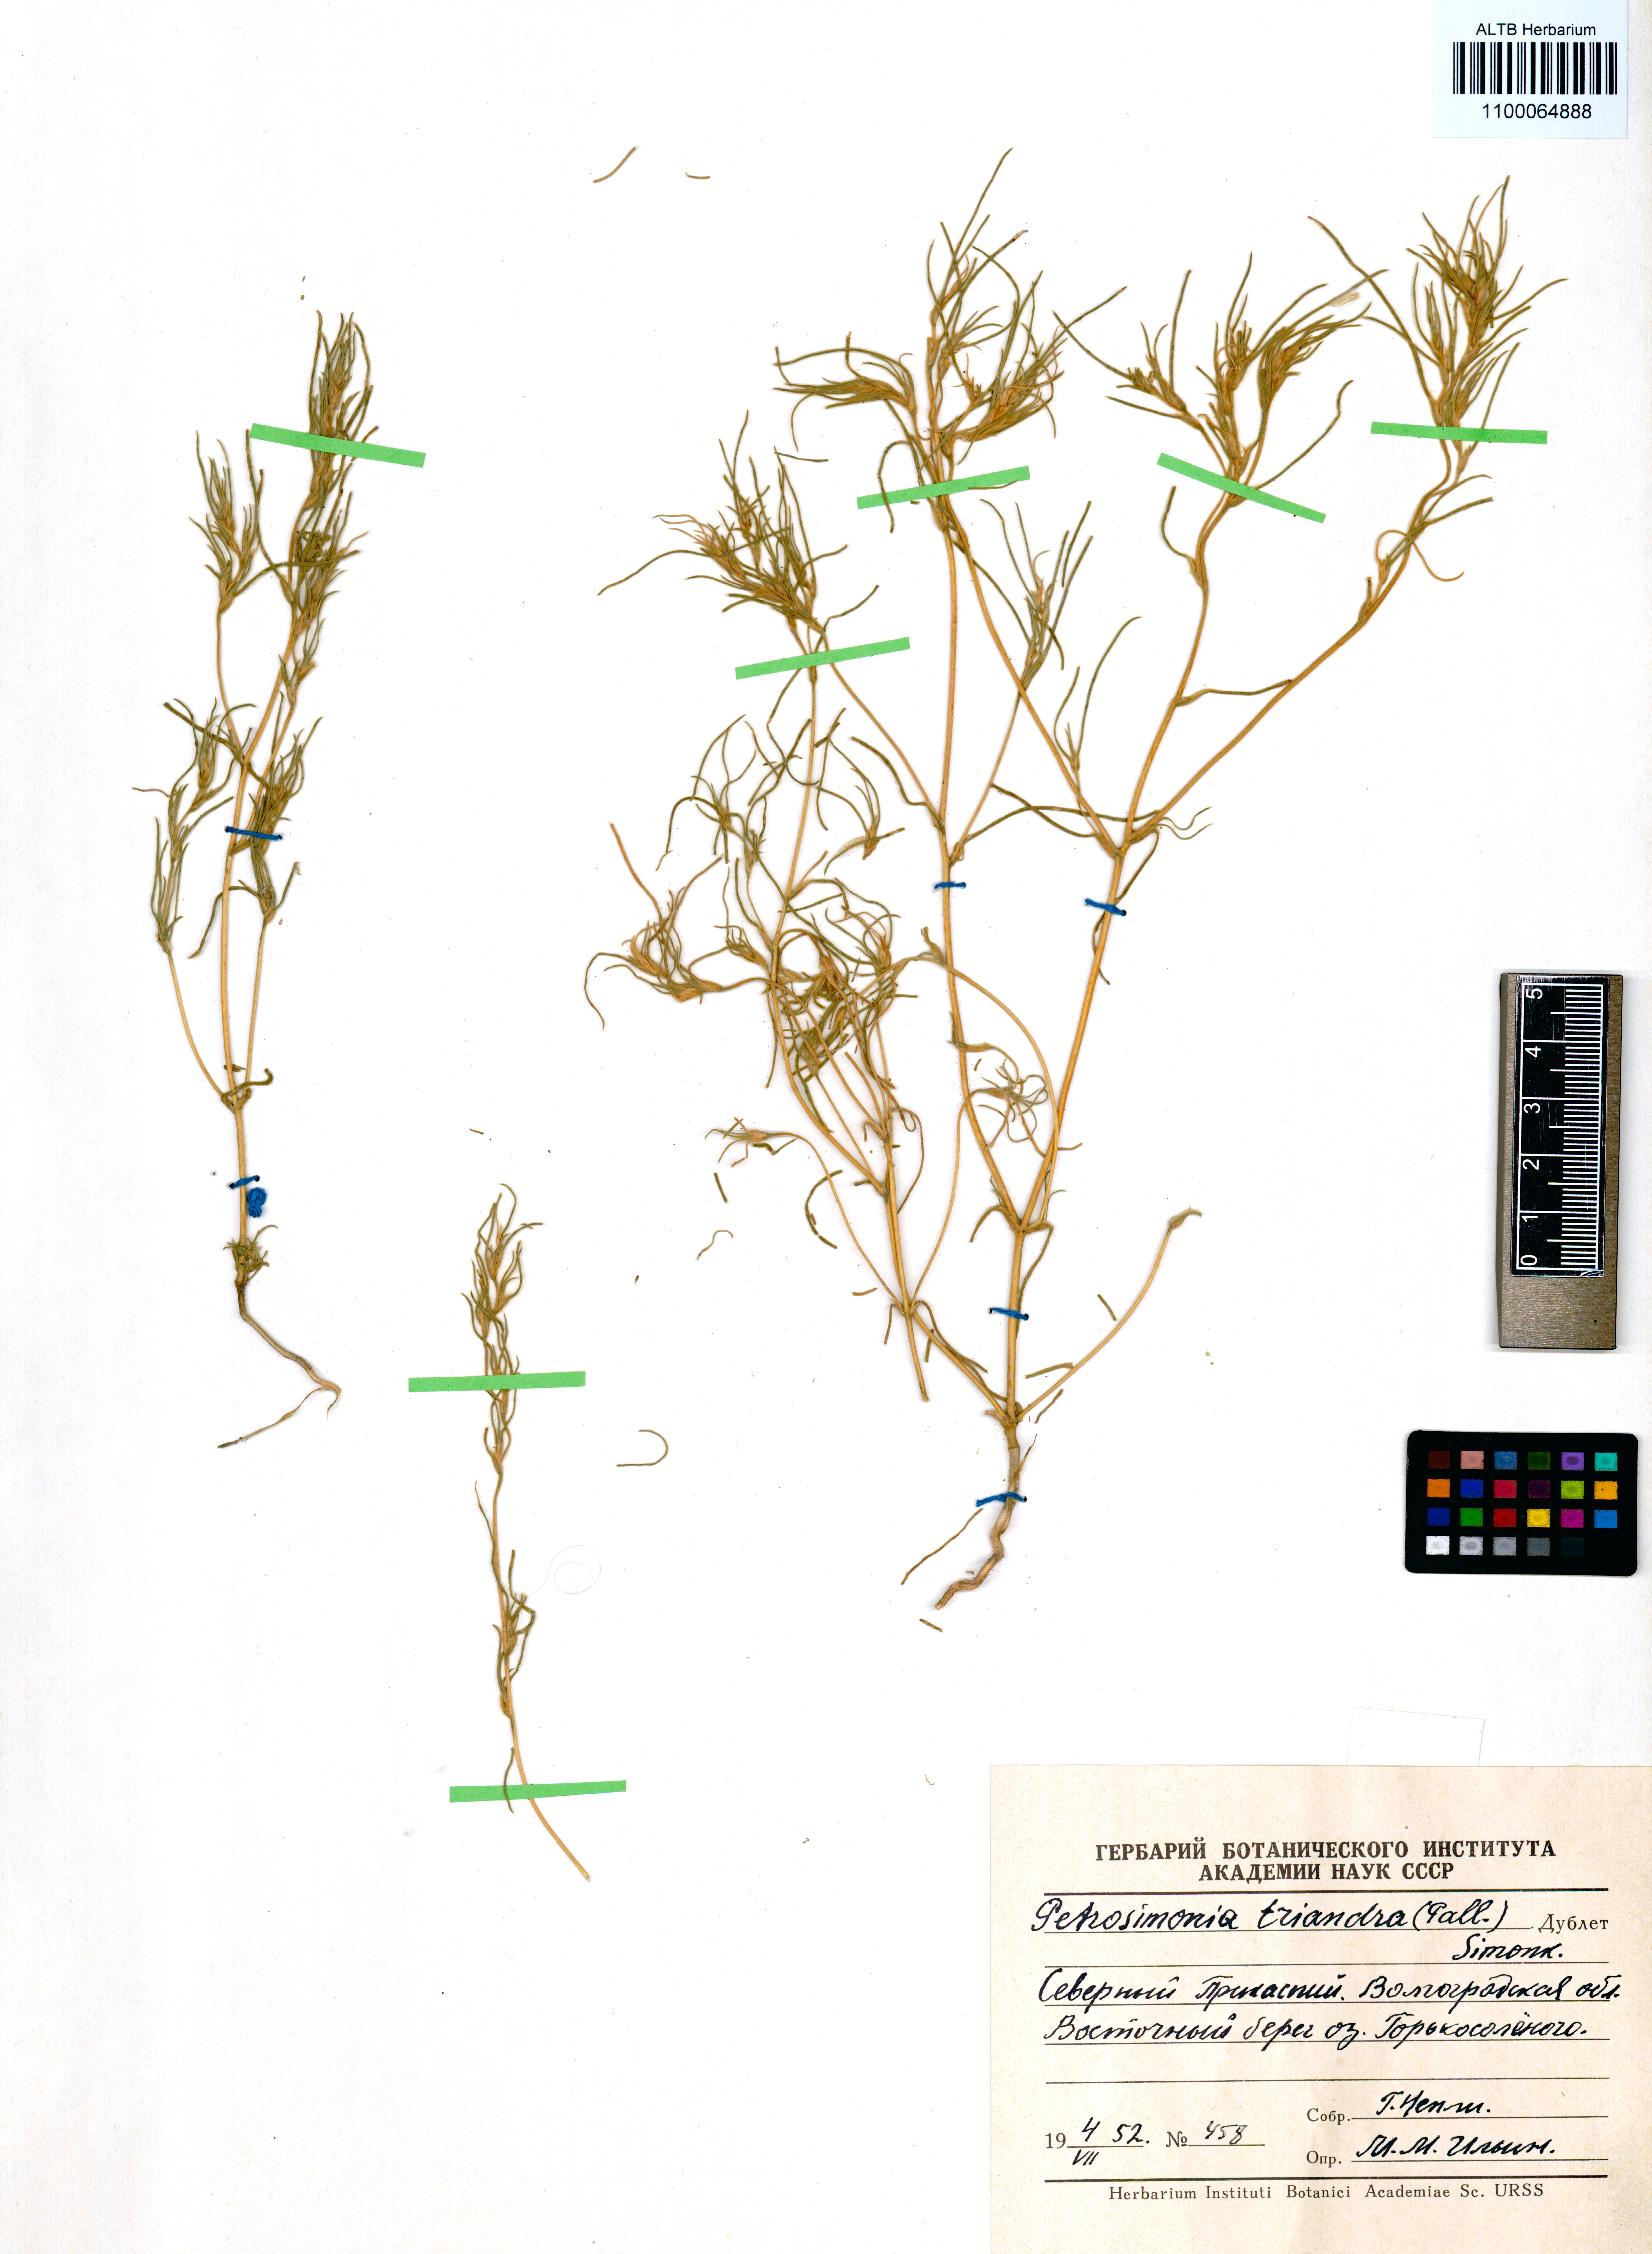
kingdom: Plantae
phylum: Tracheophyta
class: Magnoliopsida
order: Caryophyllales
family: Amaranthaceae
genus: Petrosimonia
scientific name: Petrosimonia triandra
